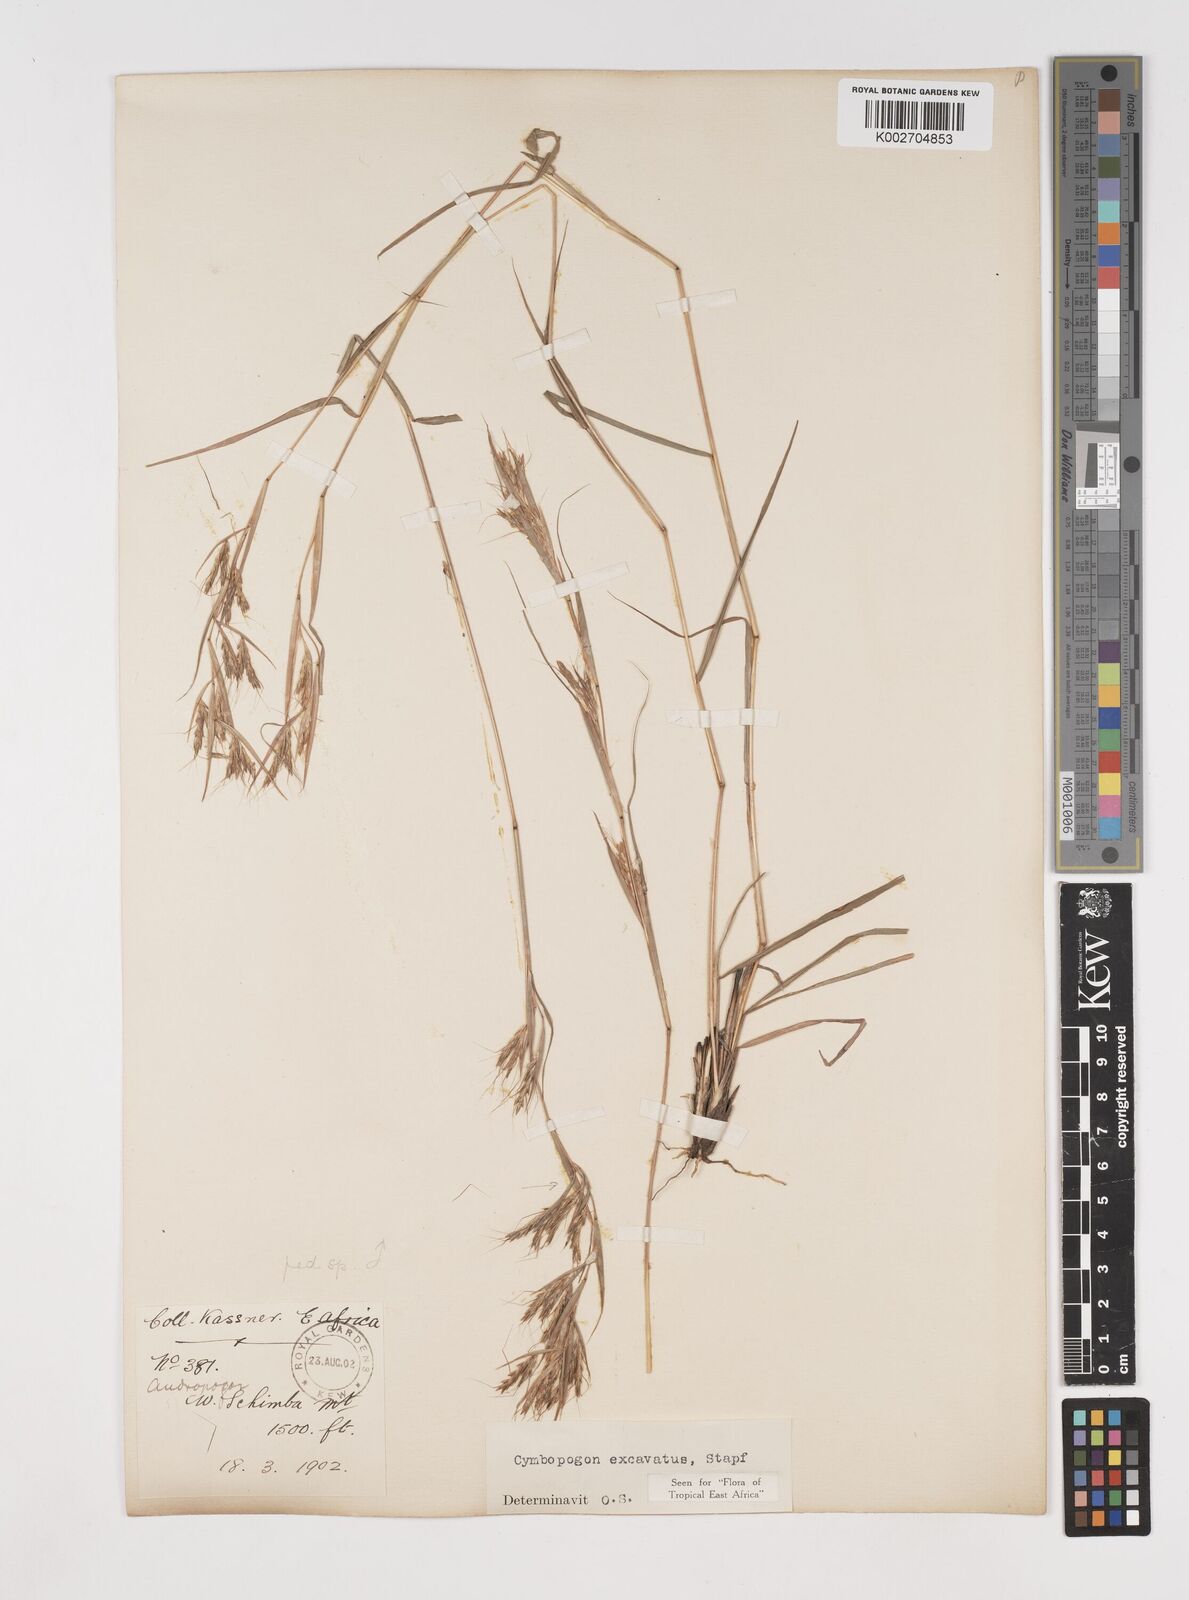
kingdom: Plantae
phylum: Tracheophyta
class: Liliopsida
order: Poales
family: Poaceae
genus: Cymbopogon
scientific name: Cymbopogon caesius
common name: Kachi grass
